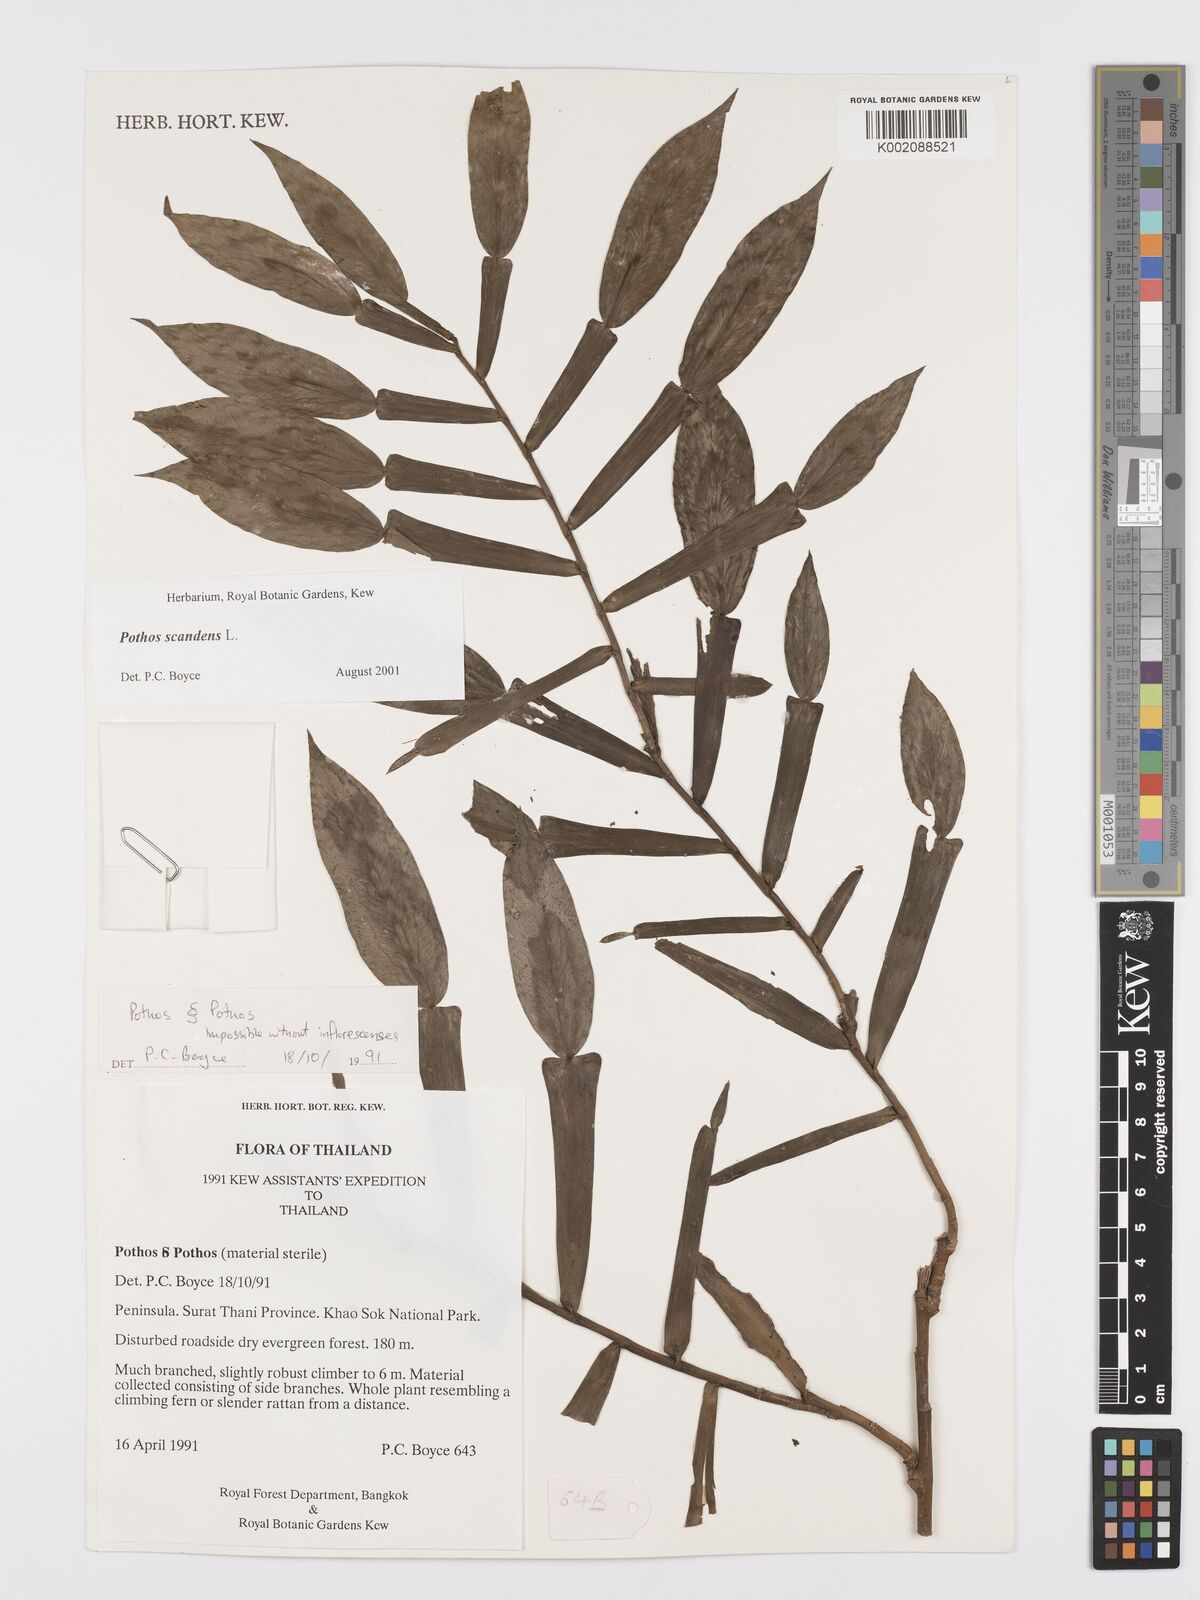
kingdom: Plantae
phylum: Tracheophyta
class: Liliopsida
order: Alismatales
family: Araceae
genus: Pothos
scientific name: Pothos scandens
